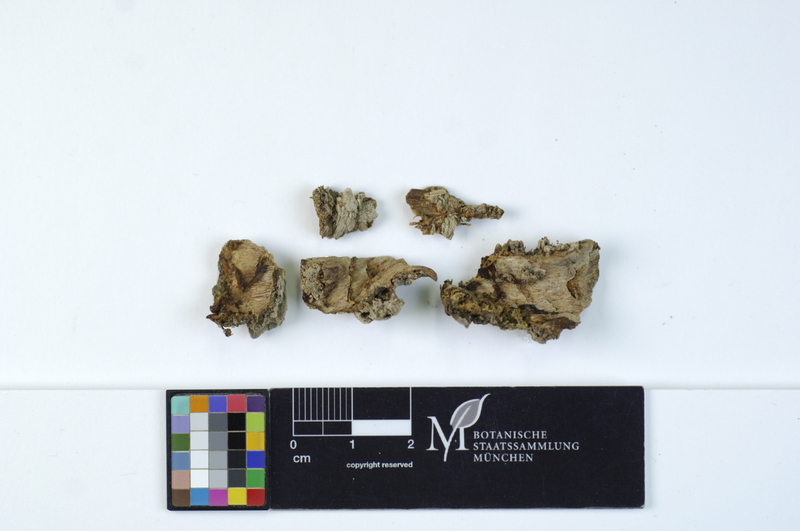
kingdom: Fungi
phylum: Basidiomycota
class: Agaricomycetes
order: Polyporales
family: Meruliaceae
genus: Physisporinus
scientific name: Physisporinus vitreus
